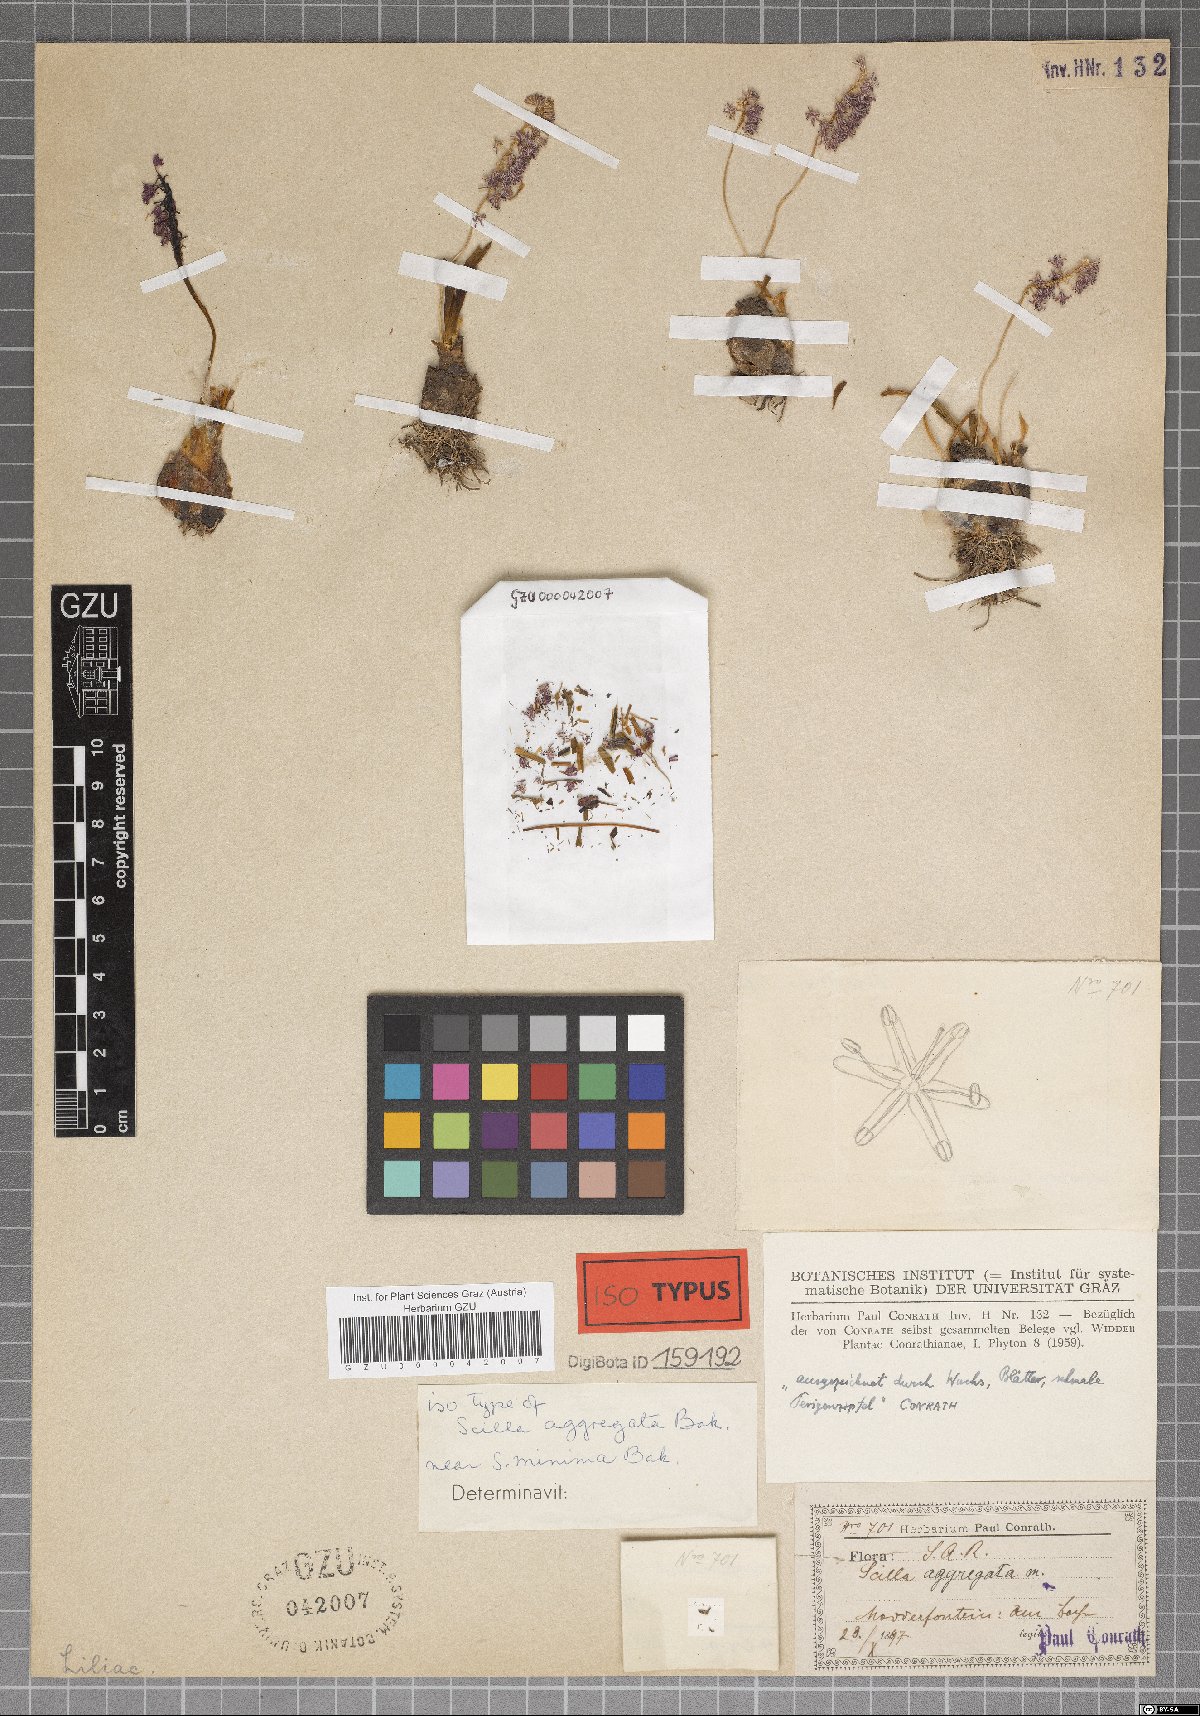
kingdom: Plantae
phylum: Tracheophyta
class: Liliopsida
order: Asparagales
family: Asparagaceae
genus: Ledebouria
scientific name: Ledebouria cooperi
